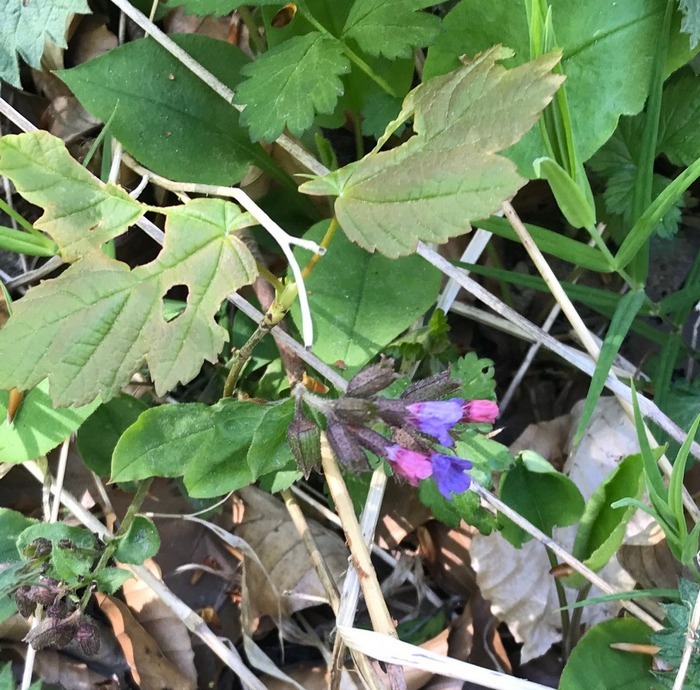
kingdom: Plantae
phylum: Tracheophyta
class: Magnoliopsida
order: Boraginales
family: Boraginaceae
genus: Pulmonaria
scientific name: Pulmonaria obscura
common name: Almindelig lungeurt
